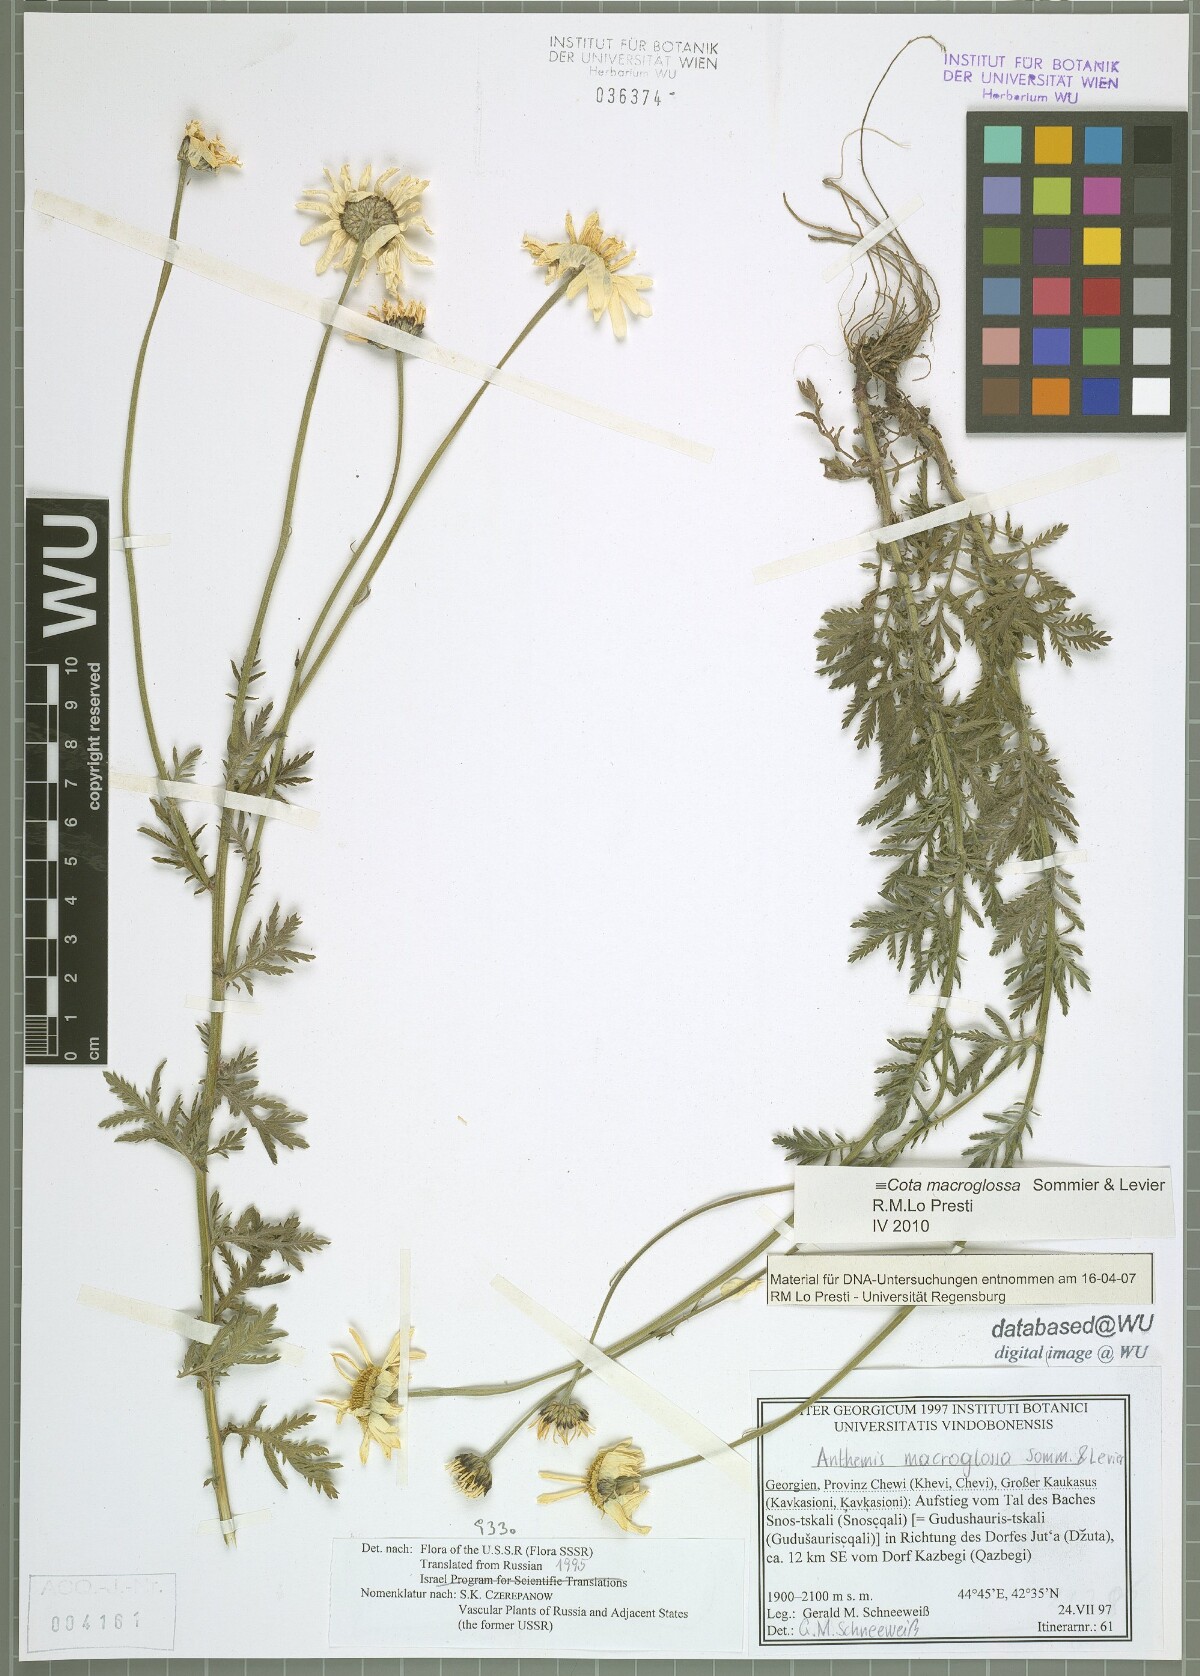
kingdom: Plantae
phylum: Tracheophyta
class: Magnoliopsida
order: Asterales
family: Asteraceae
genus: Cota
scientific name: Cota macroglossa
